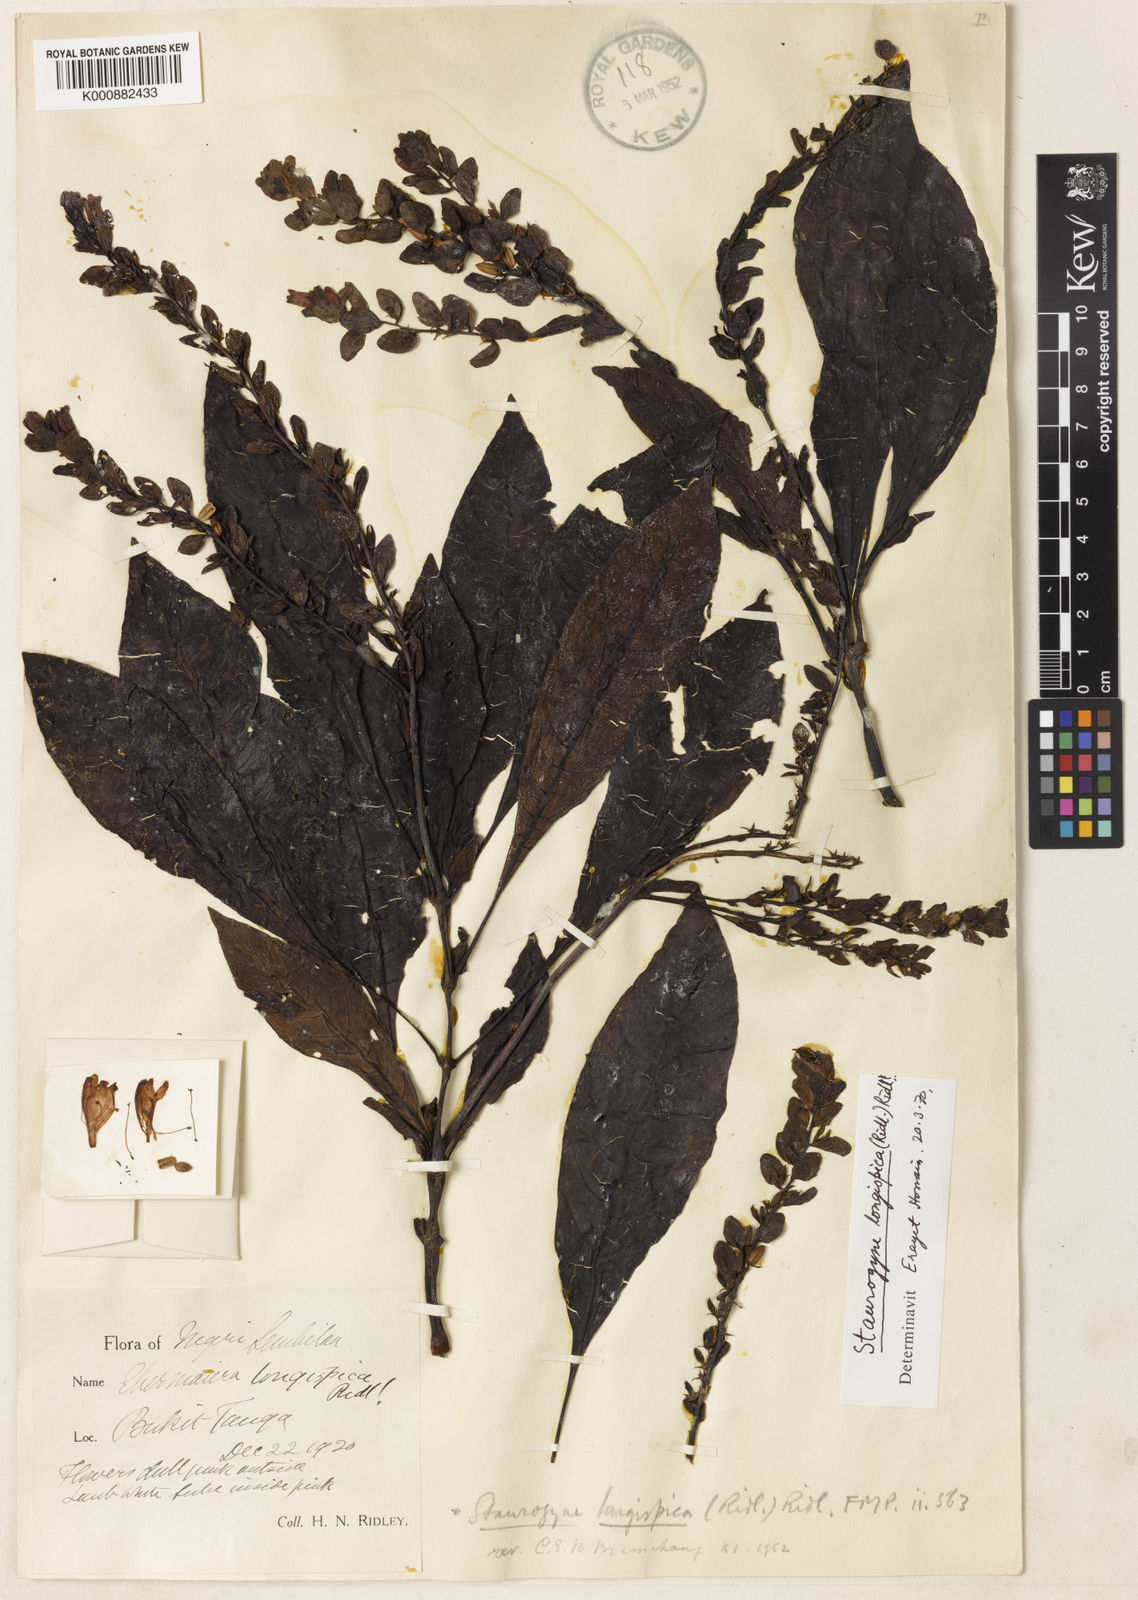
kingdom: Plantae
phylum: Tracheophyta
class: Magnoliopsida
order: Lamiales
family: Acanthaceae
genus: Staurogyne
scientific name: Staurogyne
